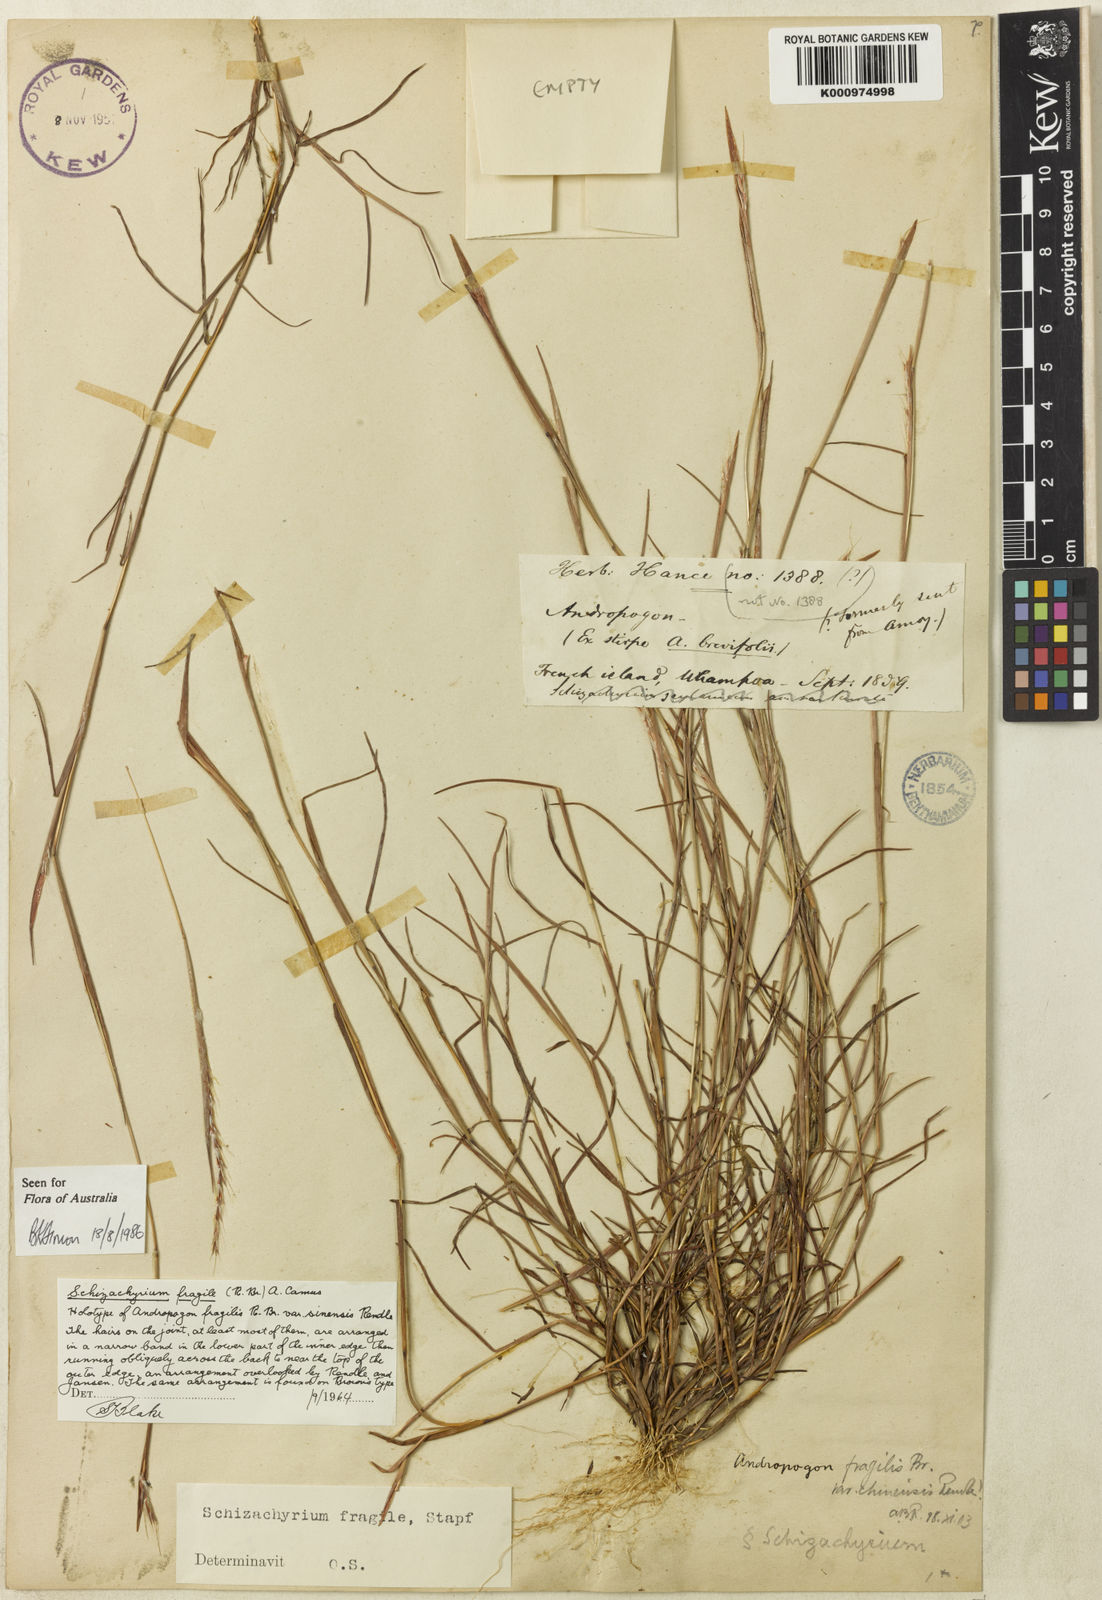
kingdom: Plantae
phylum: Tracheophyta
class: Liliopsida
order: Poales
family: Poaceae
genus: Schizachyrium
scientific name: Schizachyrium fragile
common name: Red spathe grass
